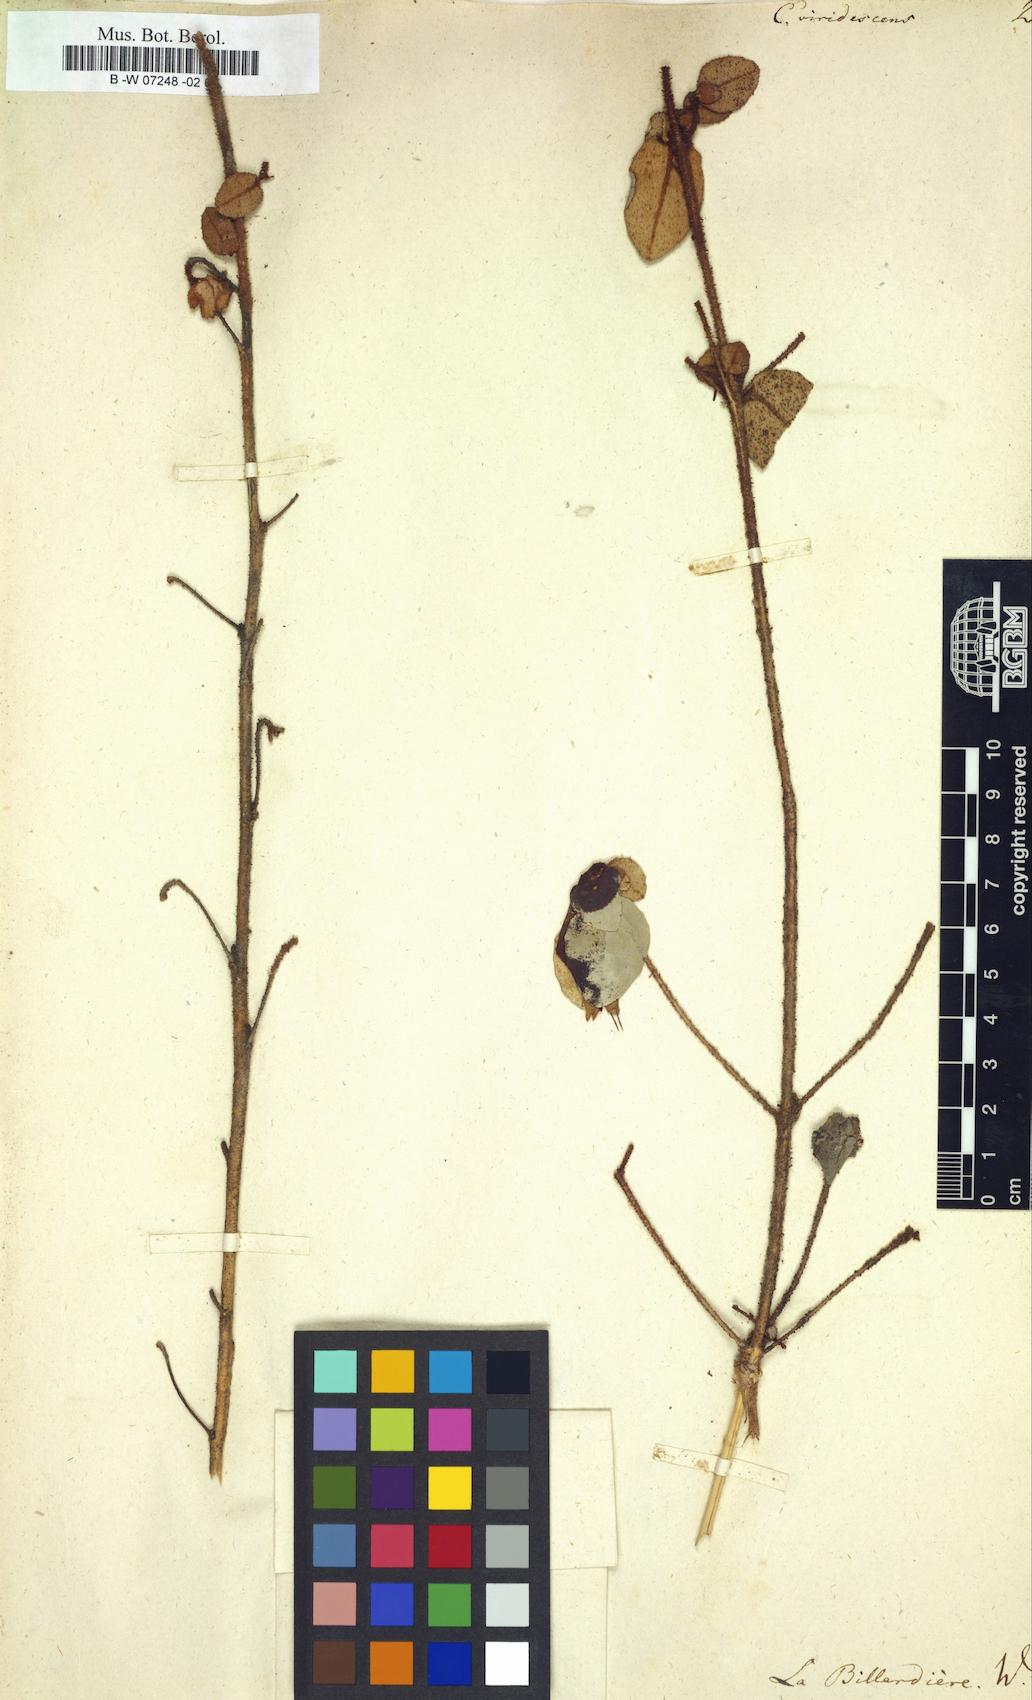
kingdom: Plantae
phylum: Tracheophyta
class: Magnoliopsida
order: Sapindales
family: Rutaceae
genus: Correa
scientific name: Correa
